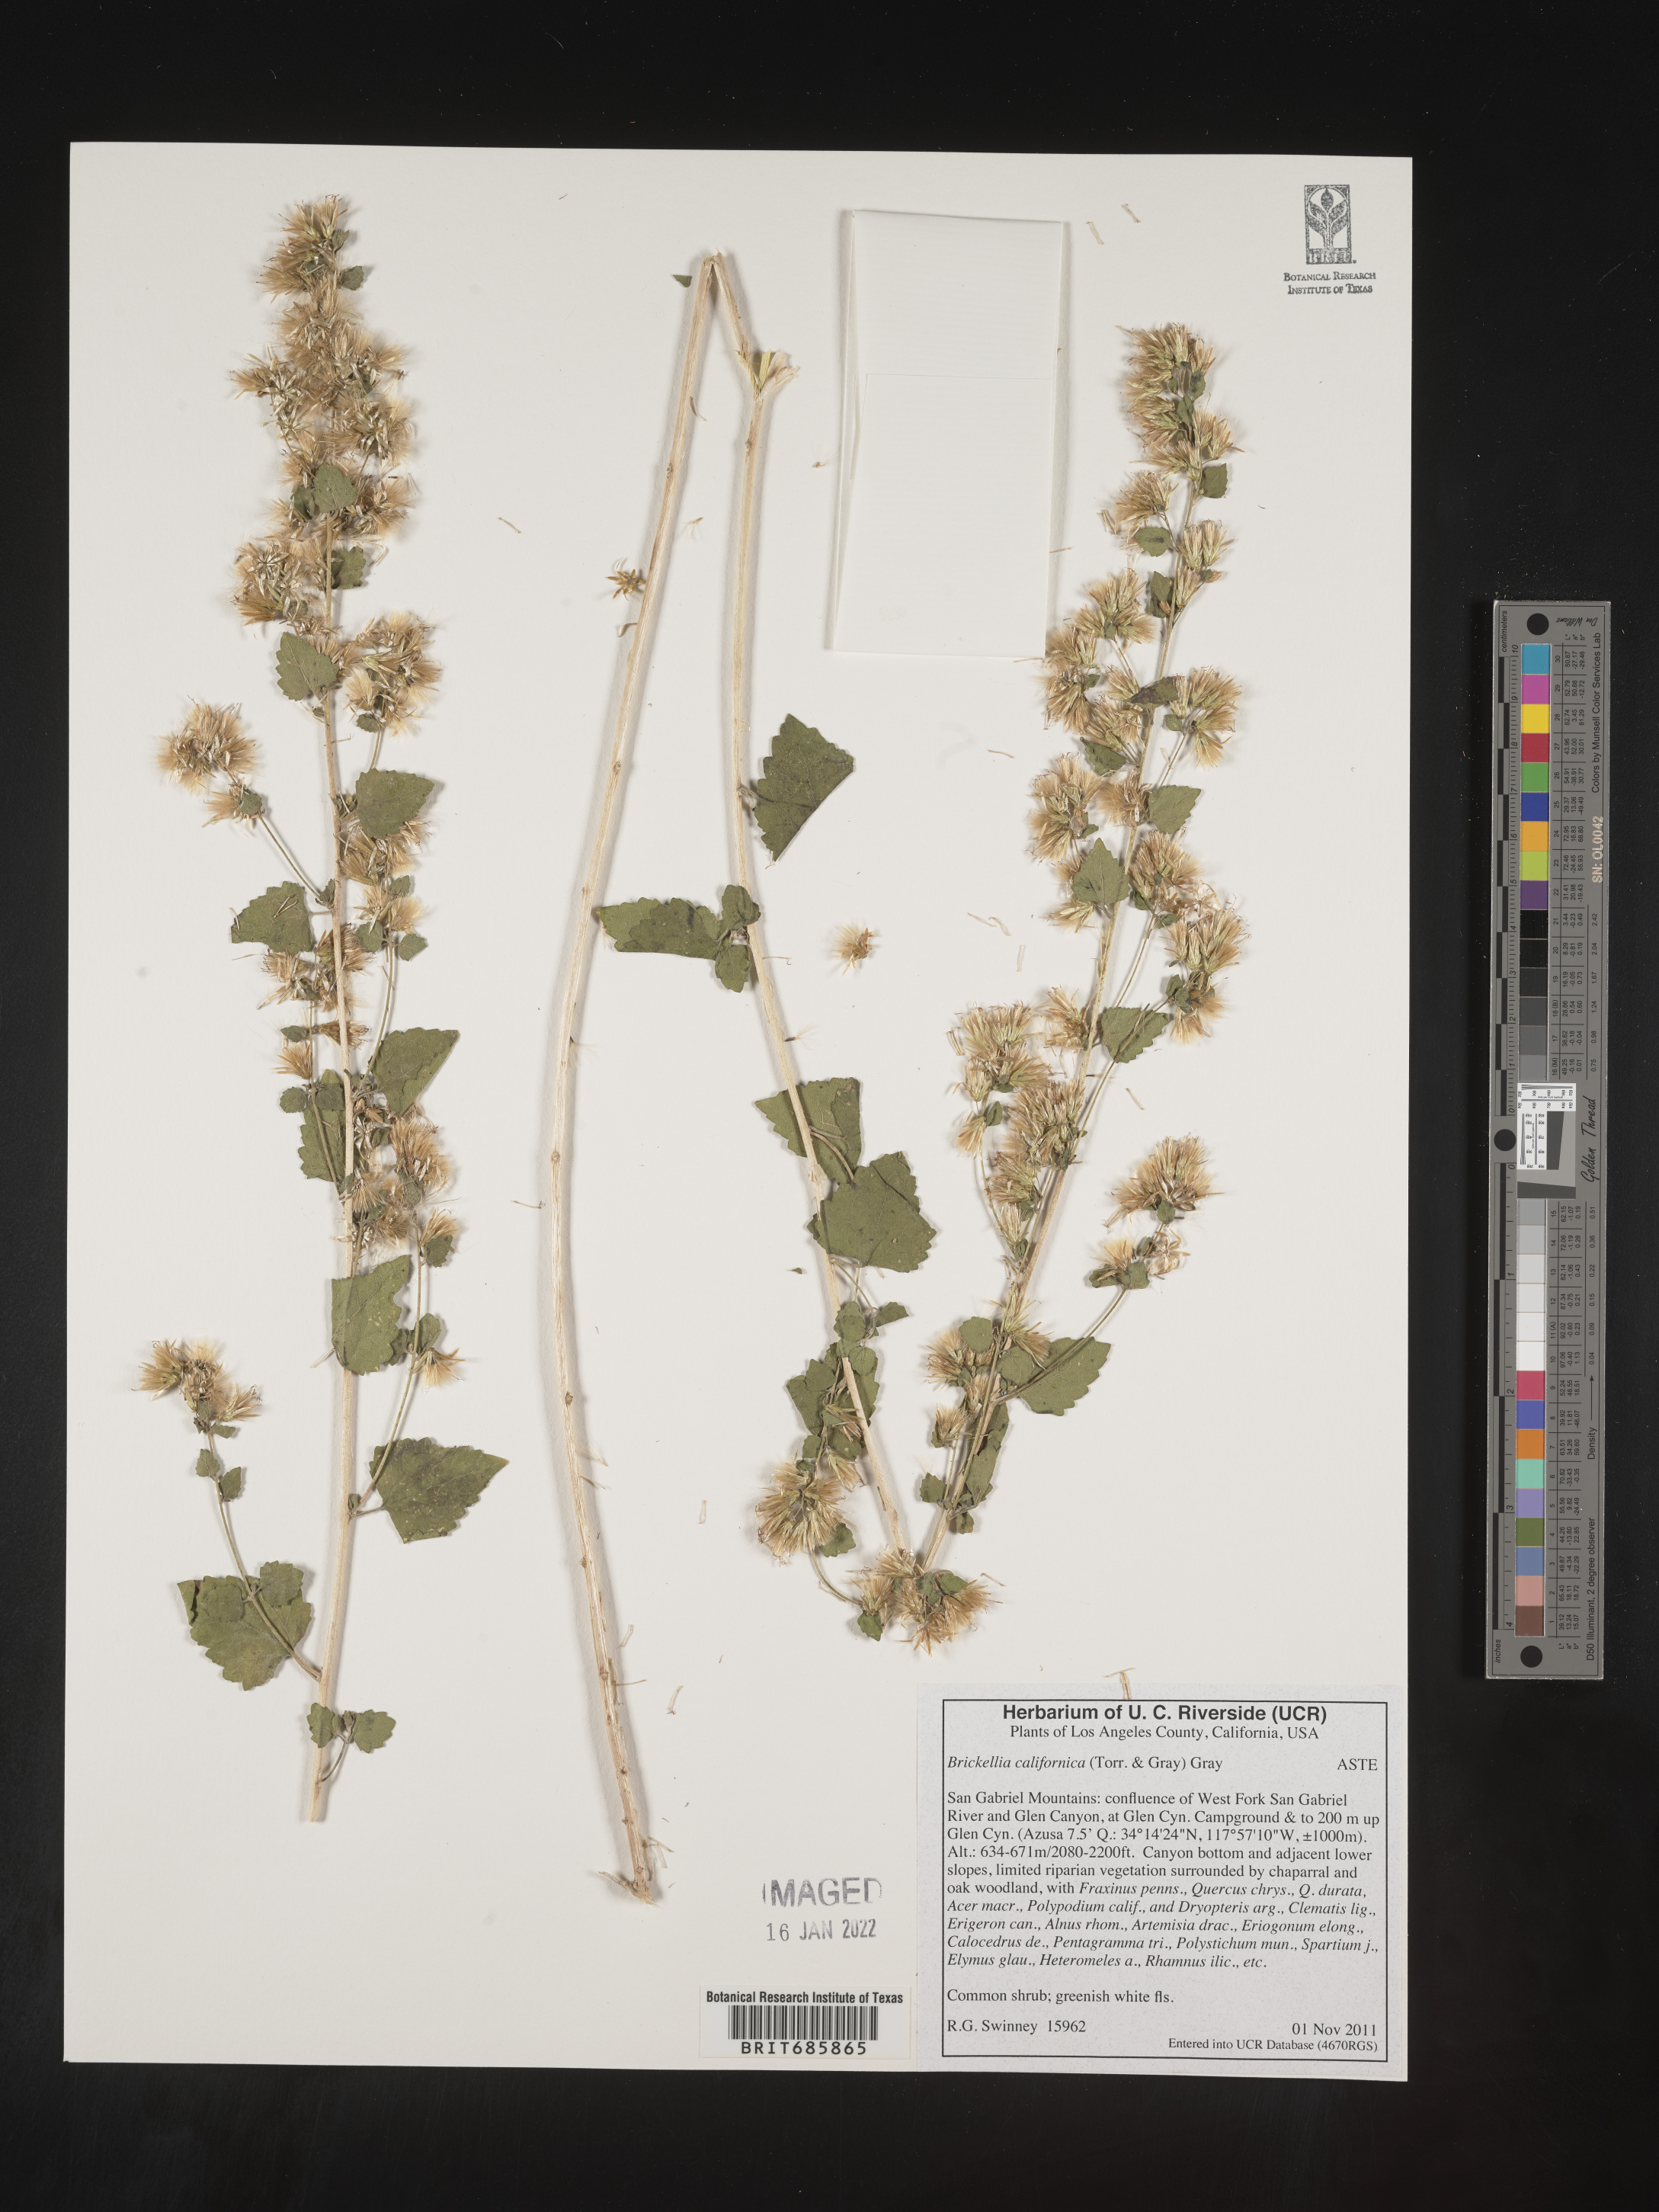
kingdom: Plantae
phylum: Tracheophyta
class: Magnoliopsida
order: Asterales
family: Asteraceae
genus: Brickellia
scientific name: Brickellia californica
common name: California brickellbush
